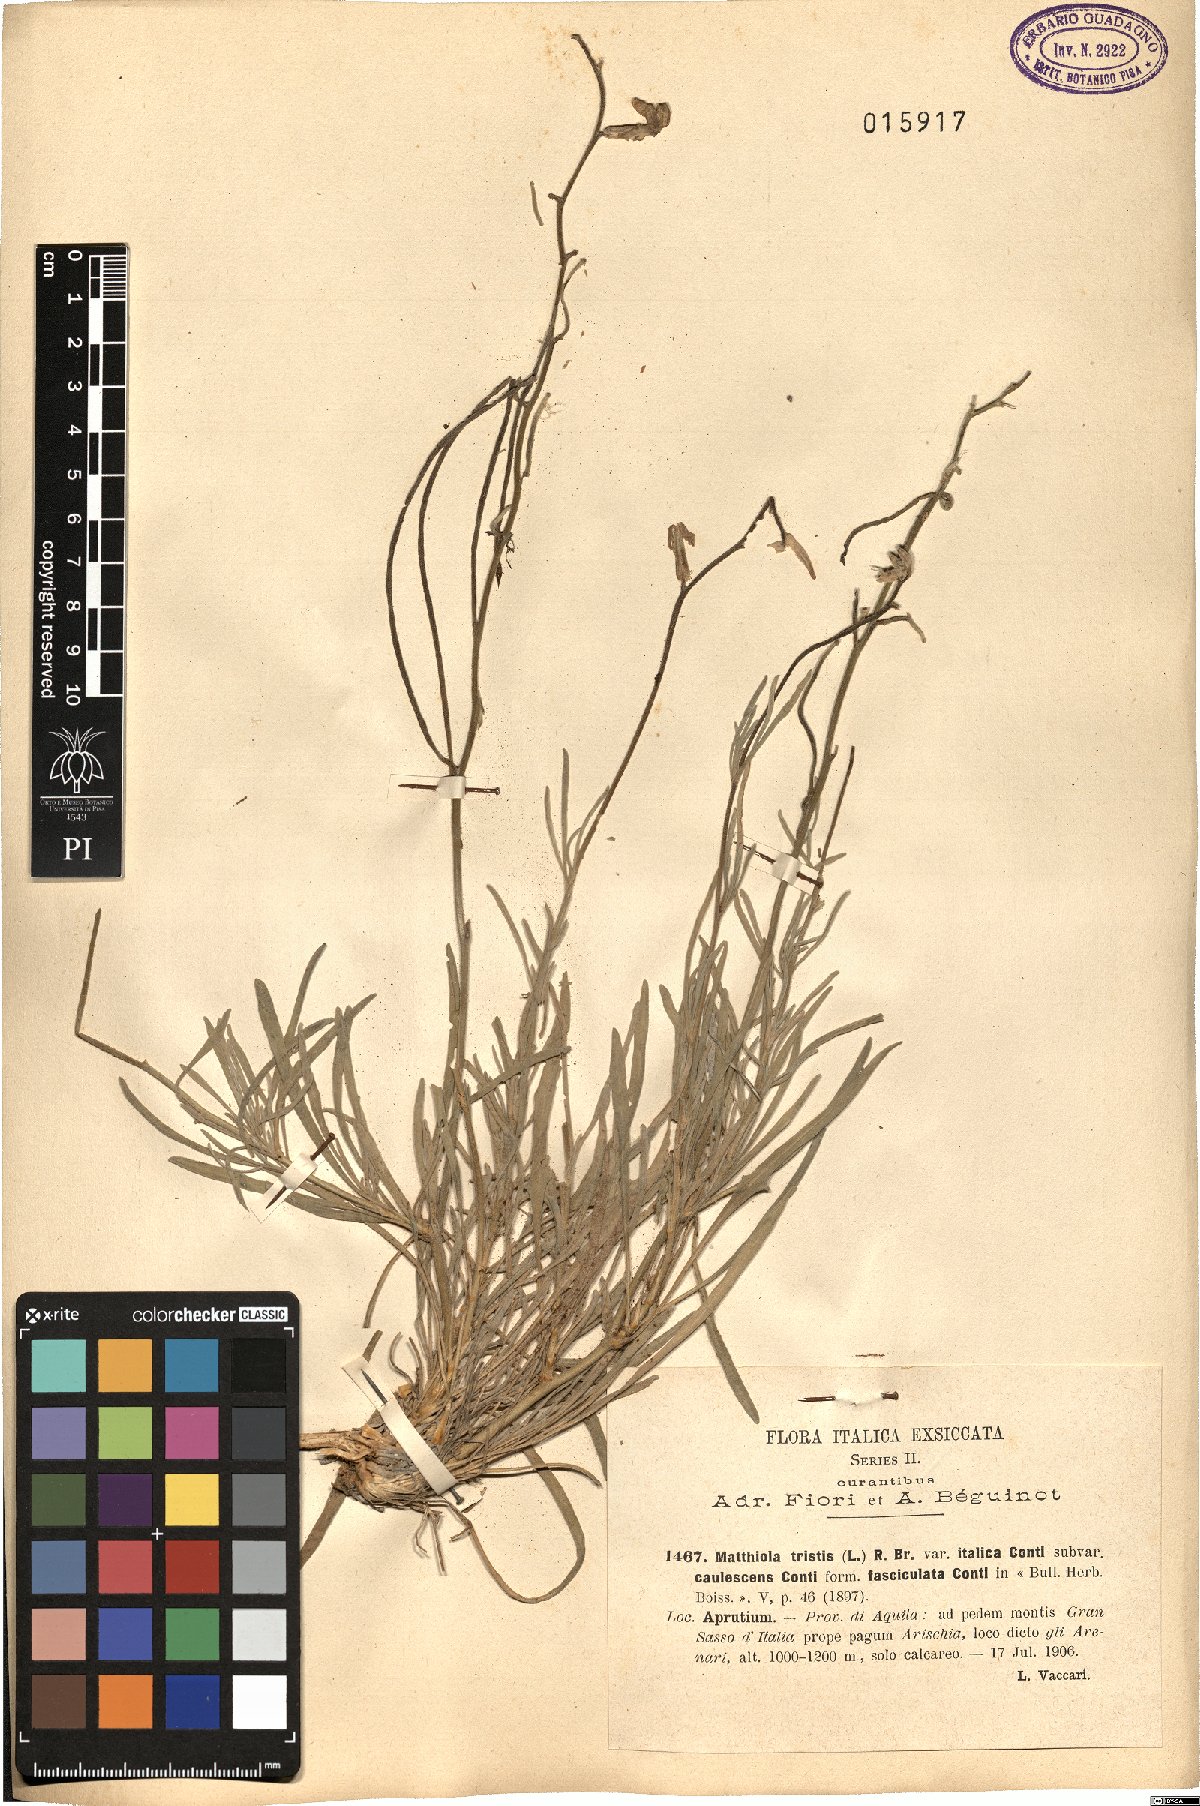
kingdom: Plantae
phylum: Tracheophyta
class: Magnoliopsida
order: Brassicales
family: Brassicaceae
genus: Matthiola
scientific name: Matthiola fruticulosa
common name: Sad stock
